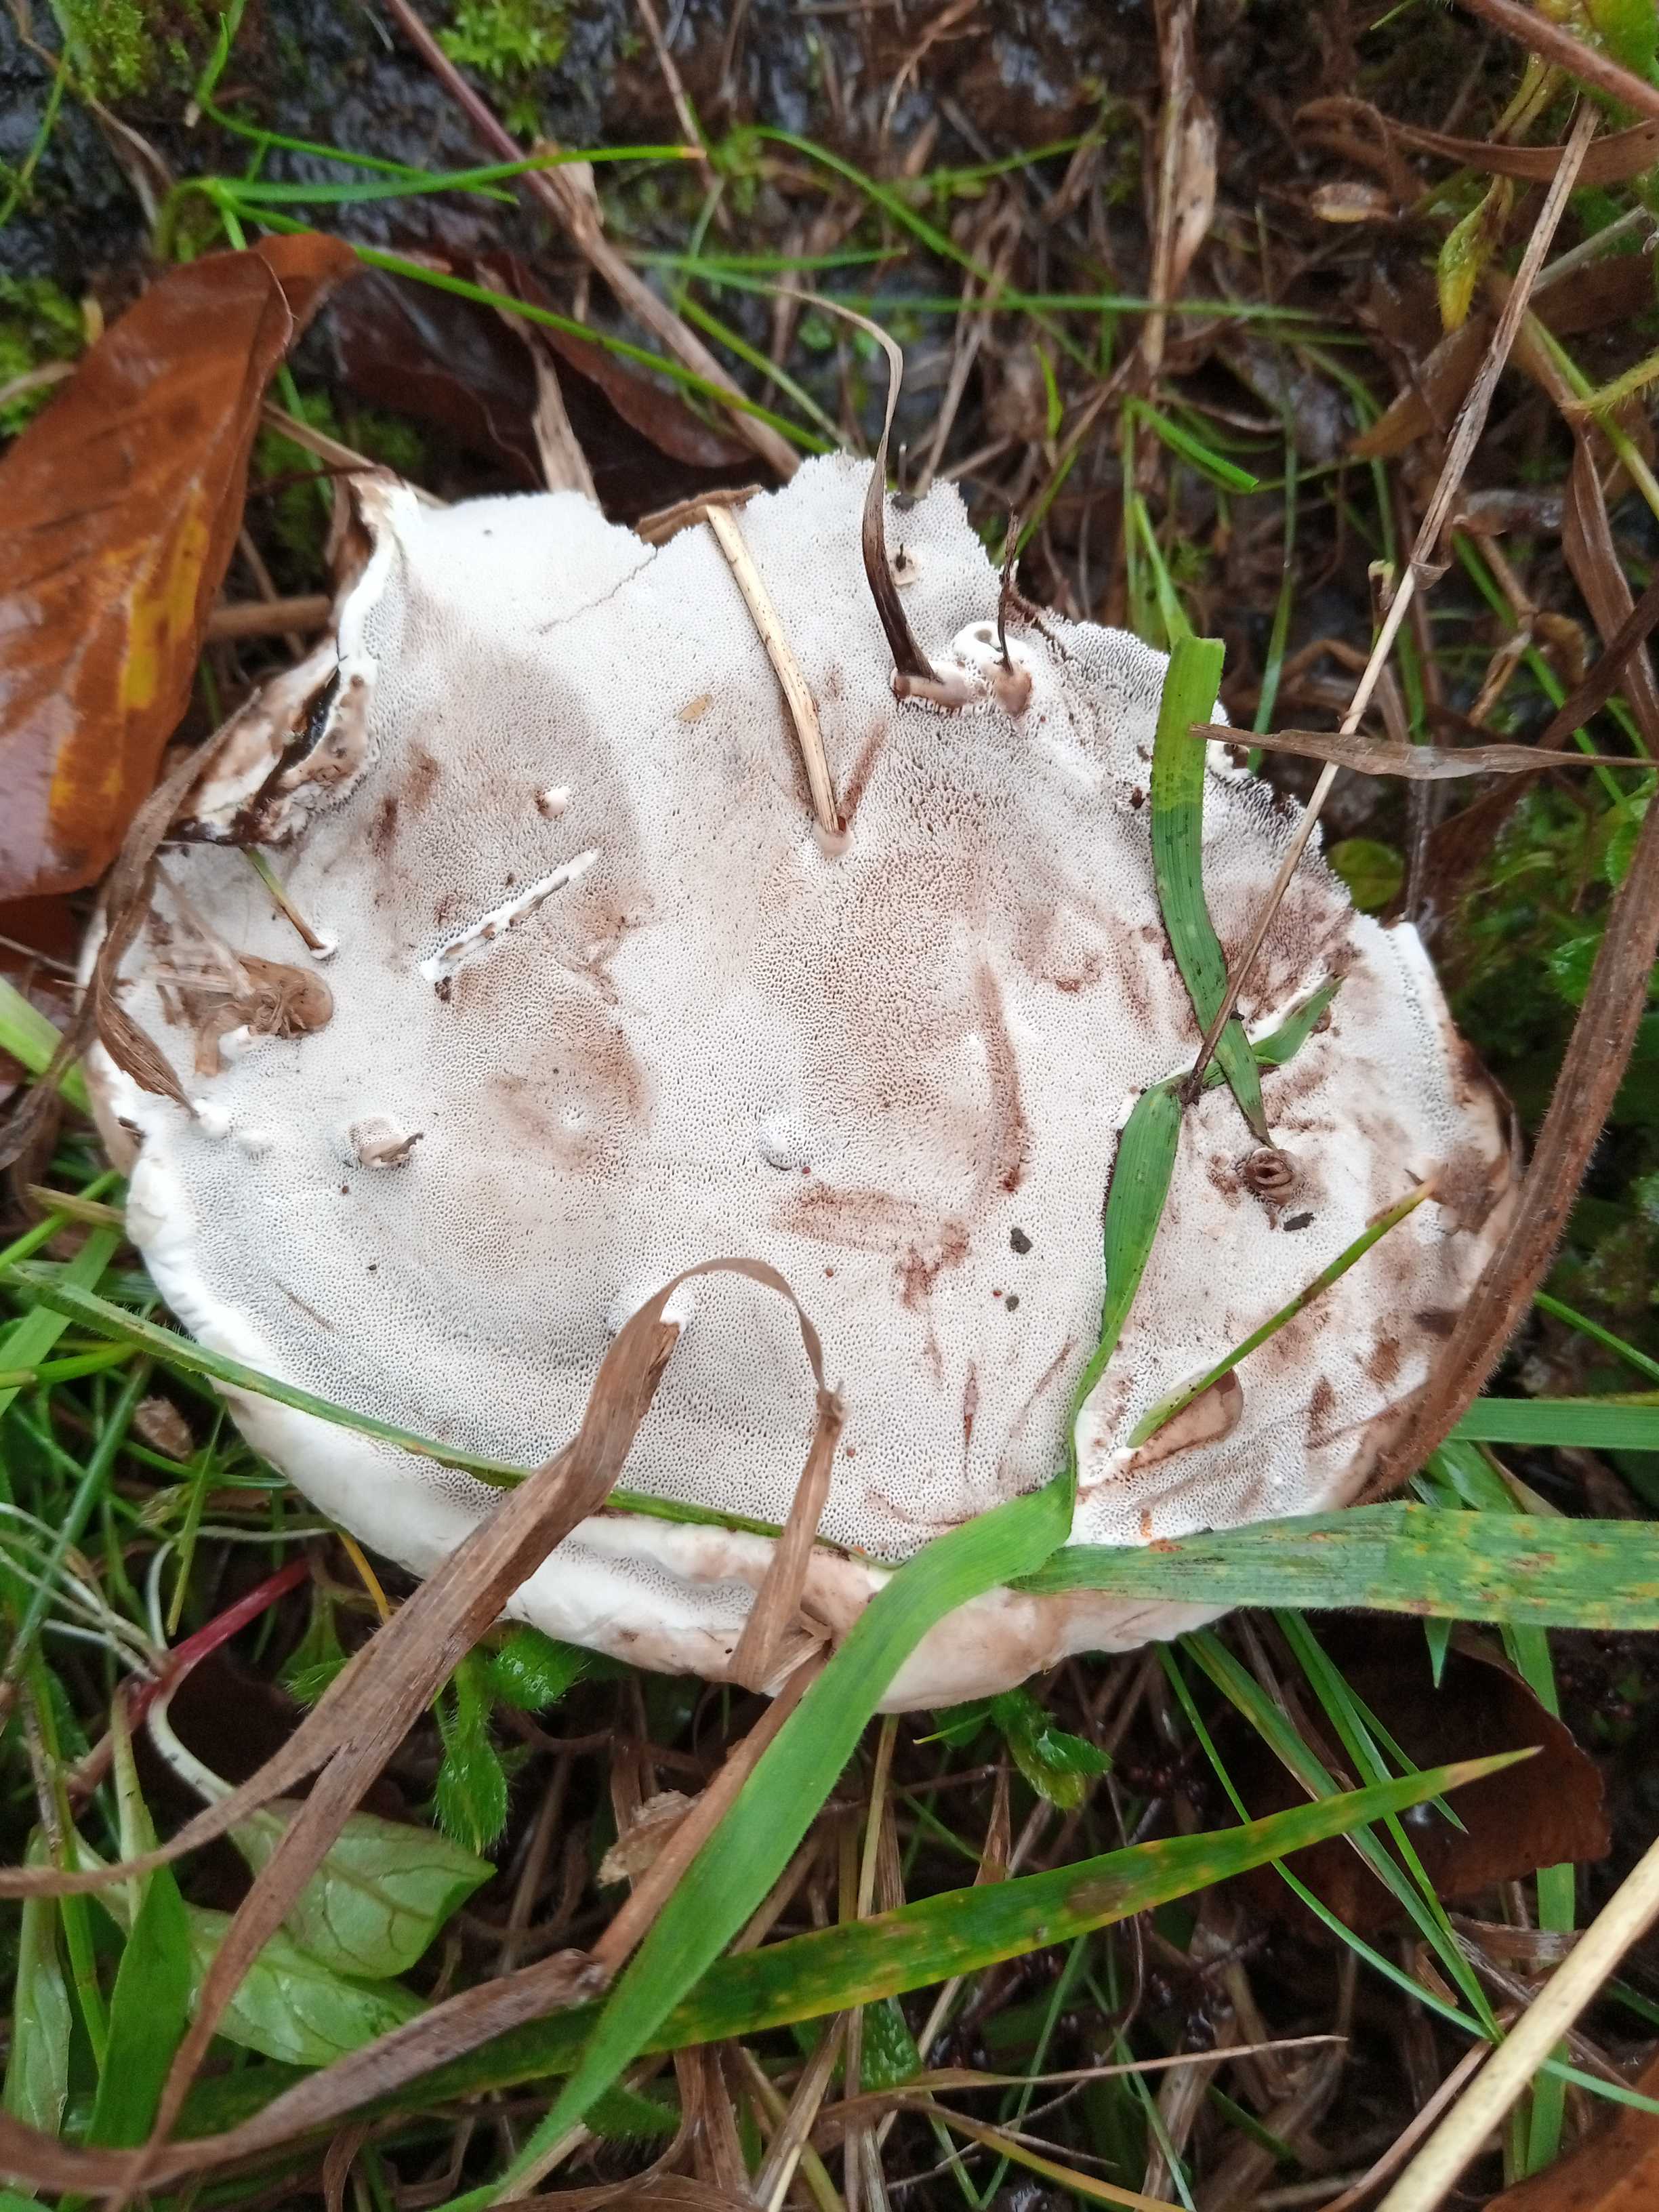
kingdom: Fungi
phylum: Basidiomycota
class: Agaricomycetes
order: Polyporales
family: Polyporaceae
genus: Ganoderma
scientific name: Ganoderma applanatum
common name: flad lakporesvamp
